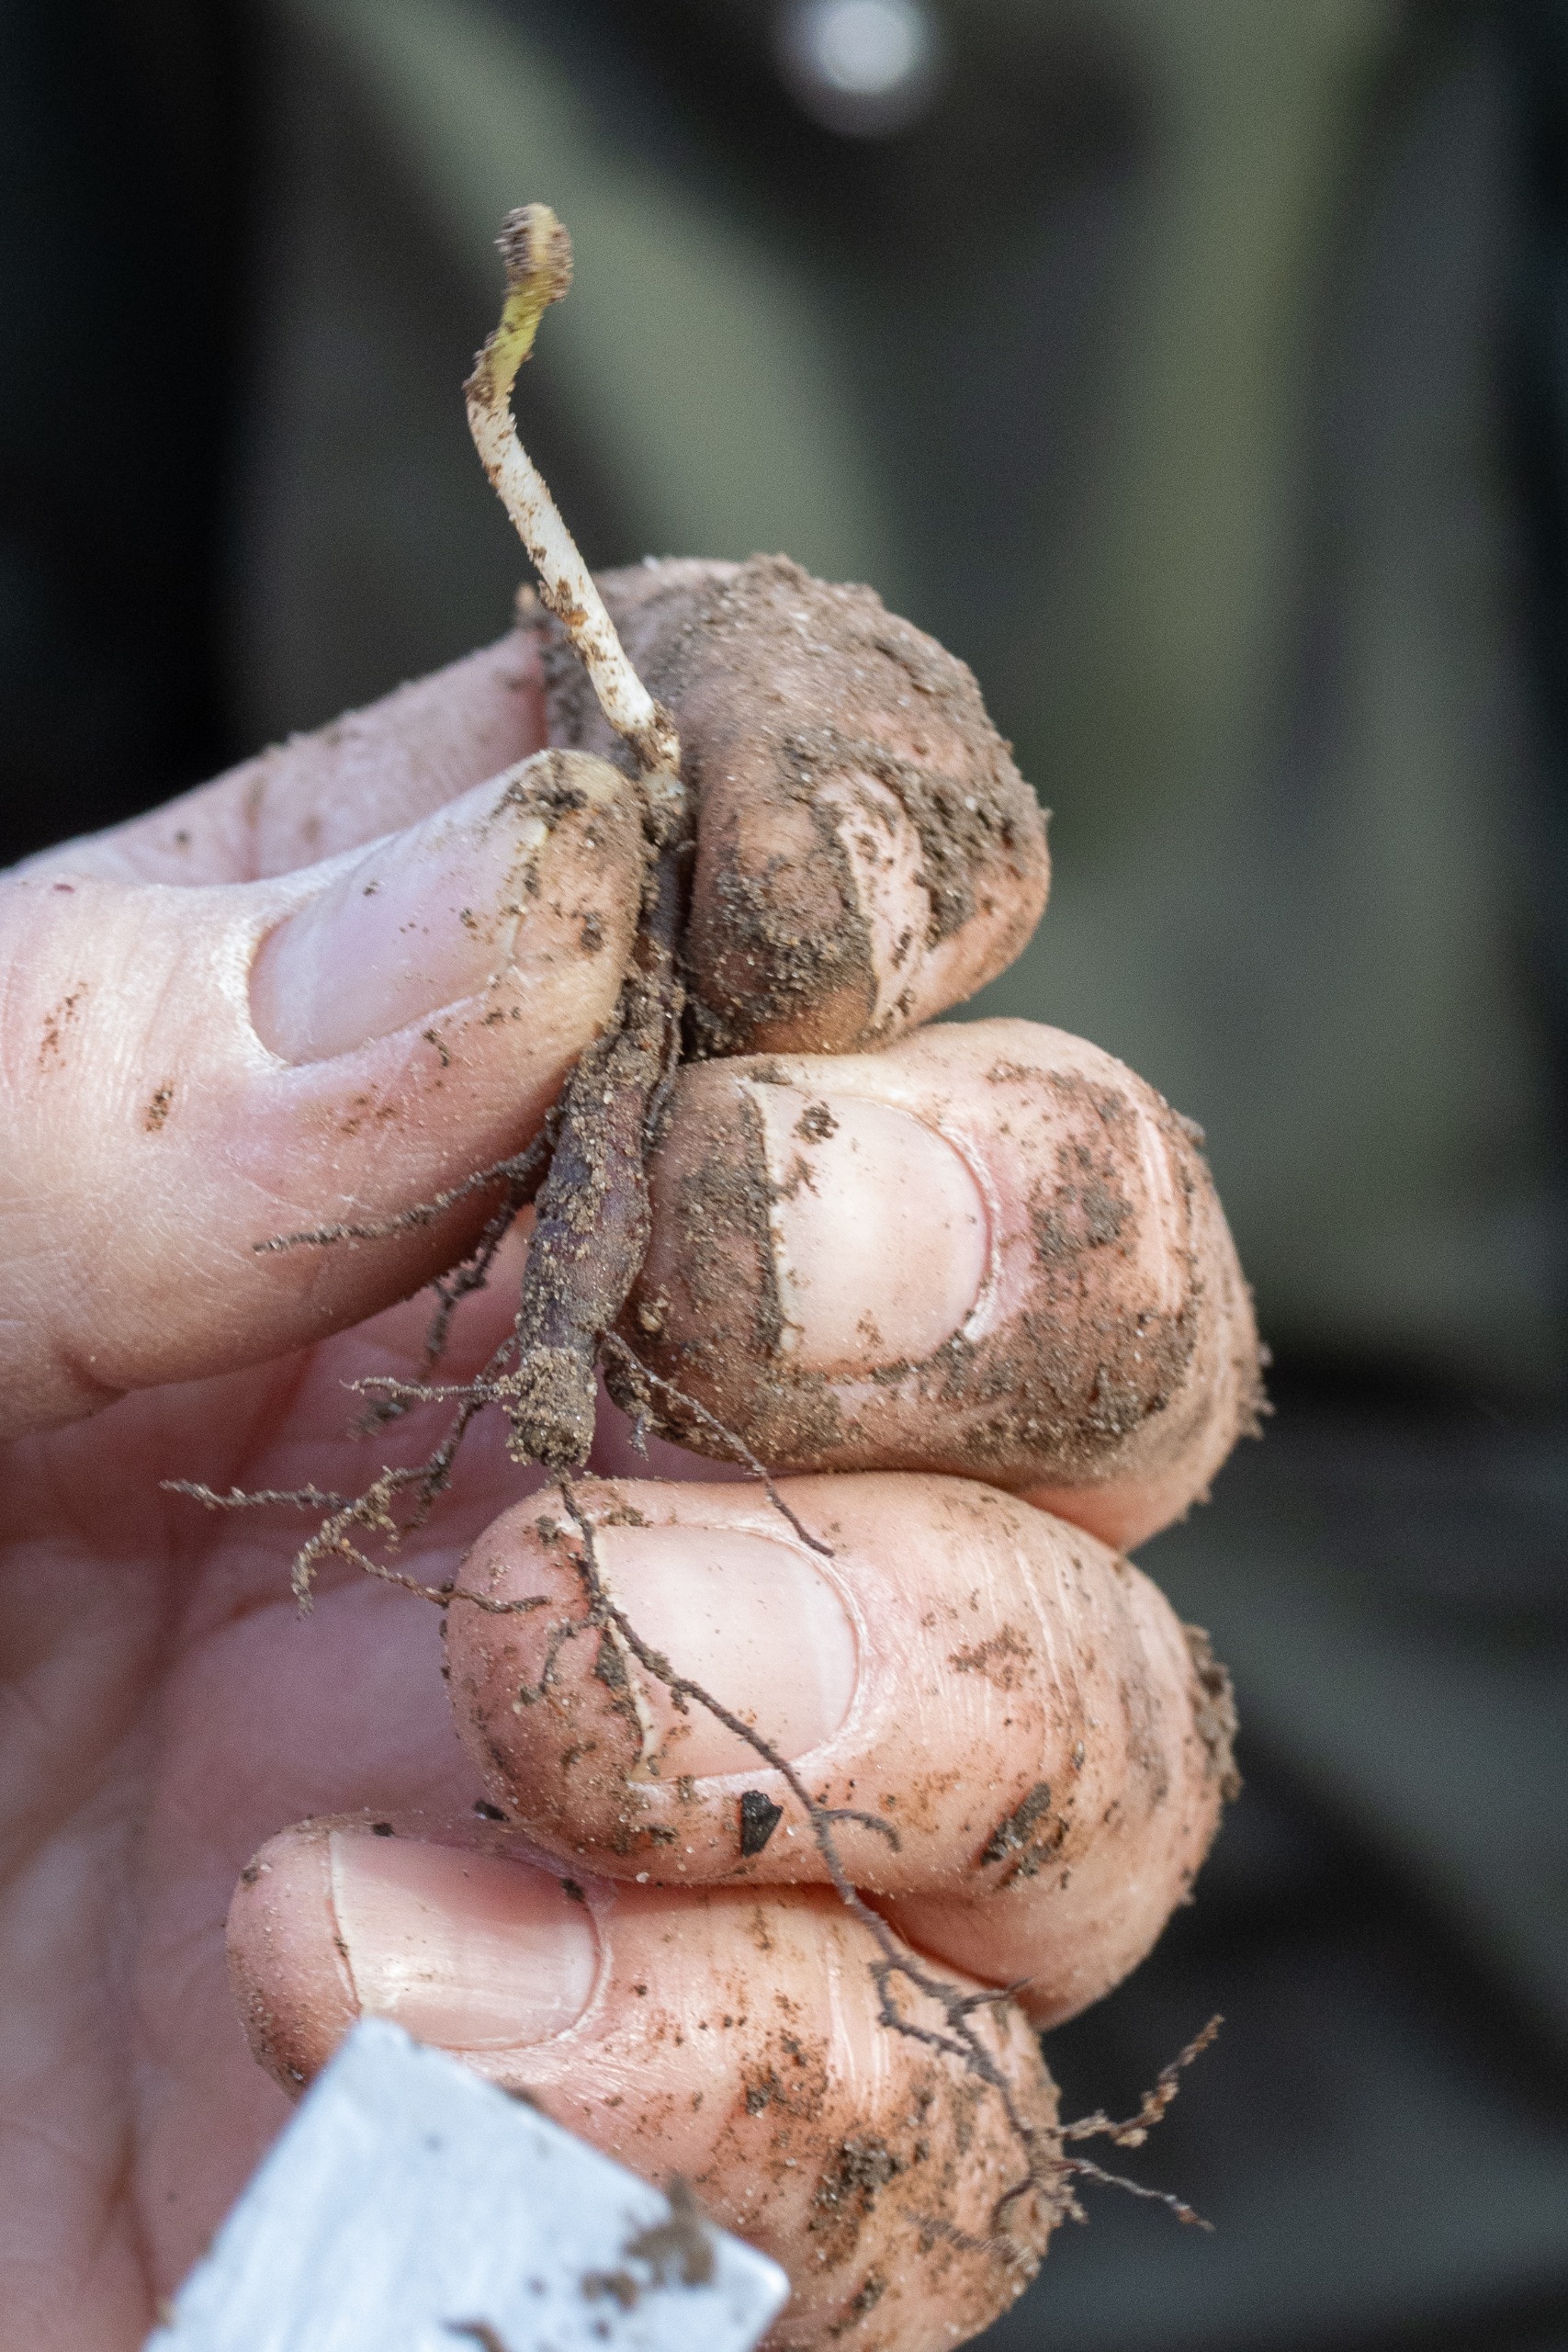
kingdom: Plantae
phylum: Tracheophyta
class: Magnoliopsida
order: Ranunculales
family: Ranunculaceae
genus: Anemone
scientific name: Anemone nemorosa
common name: Hvid anemone
